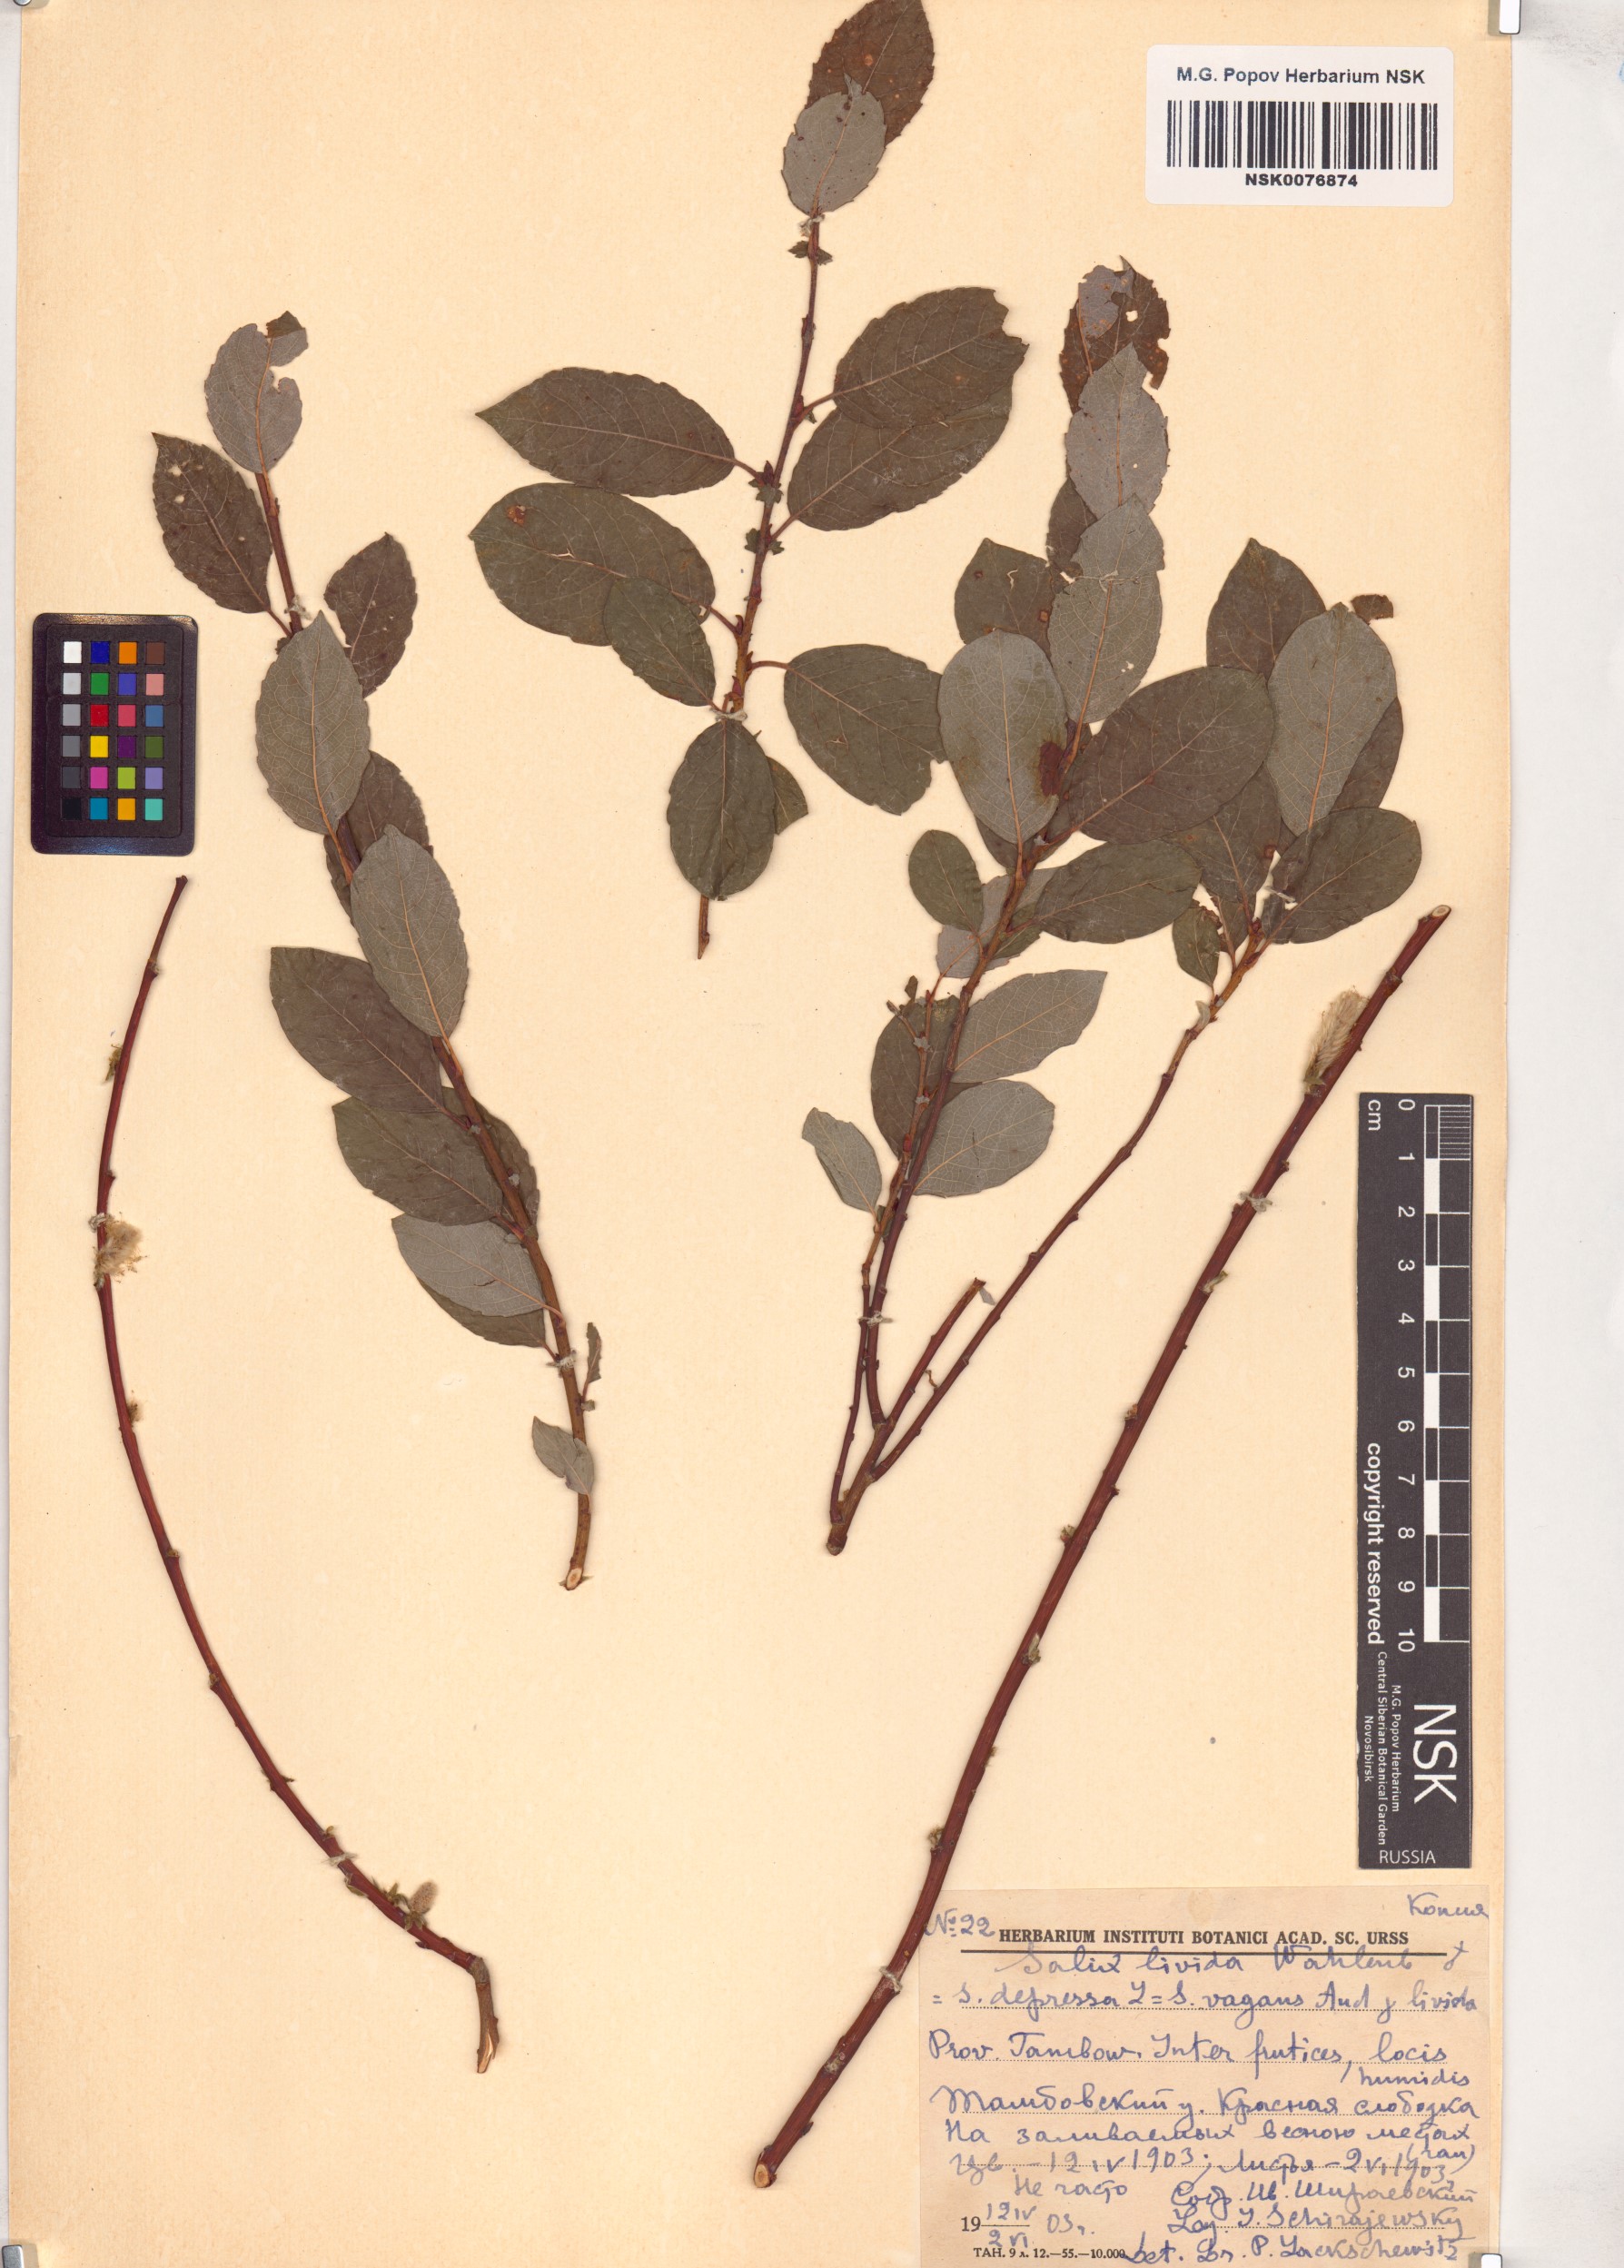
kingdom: Plantae
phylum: Tracheophyta
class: Magnoliopsida
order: Malpighiales
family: Salicaceae
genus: Salix
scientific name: Salix
